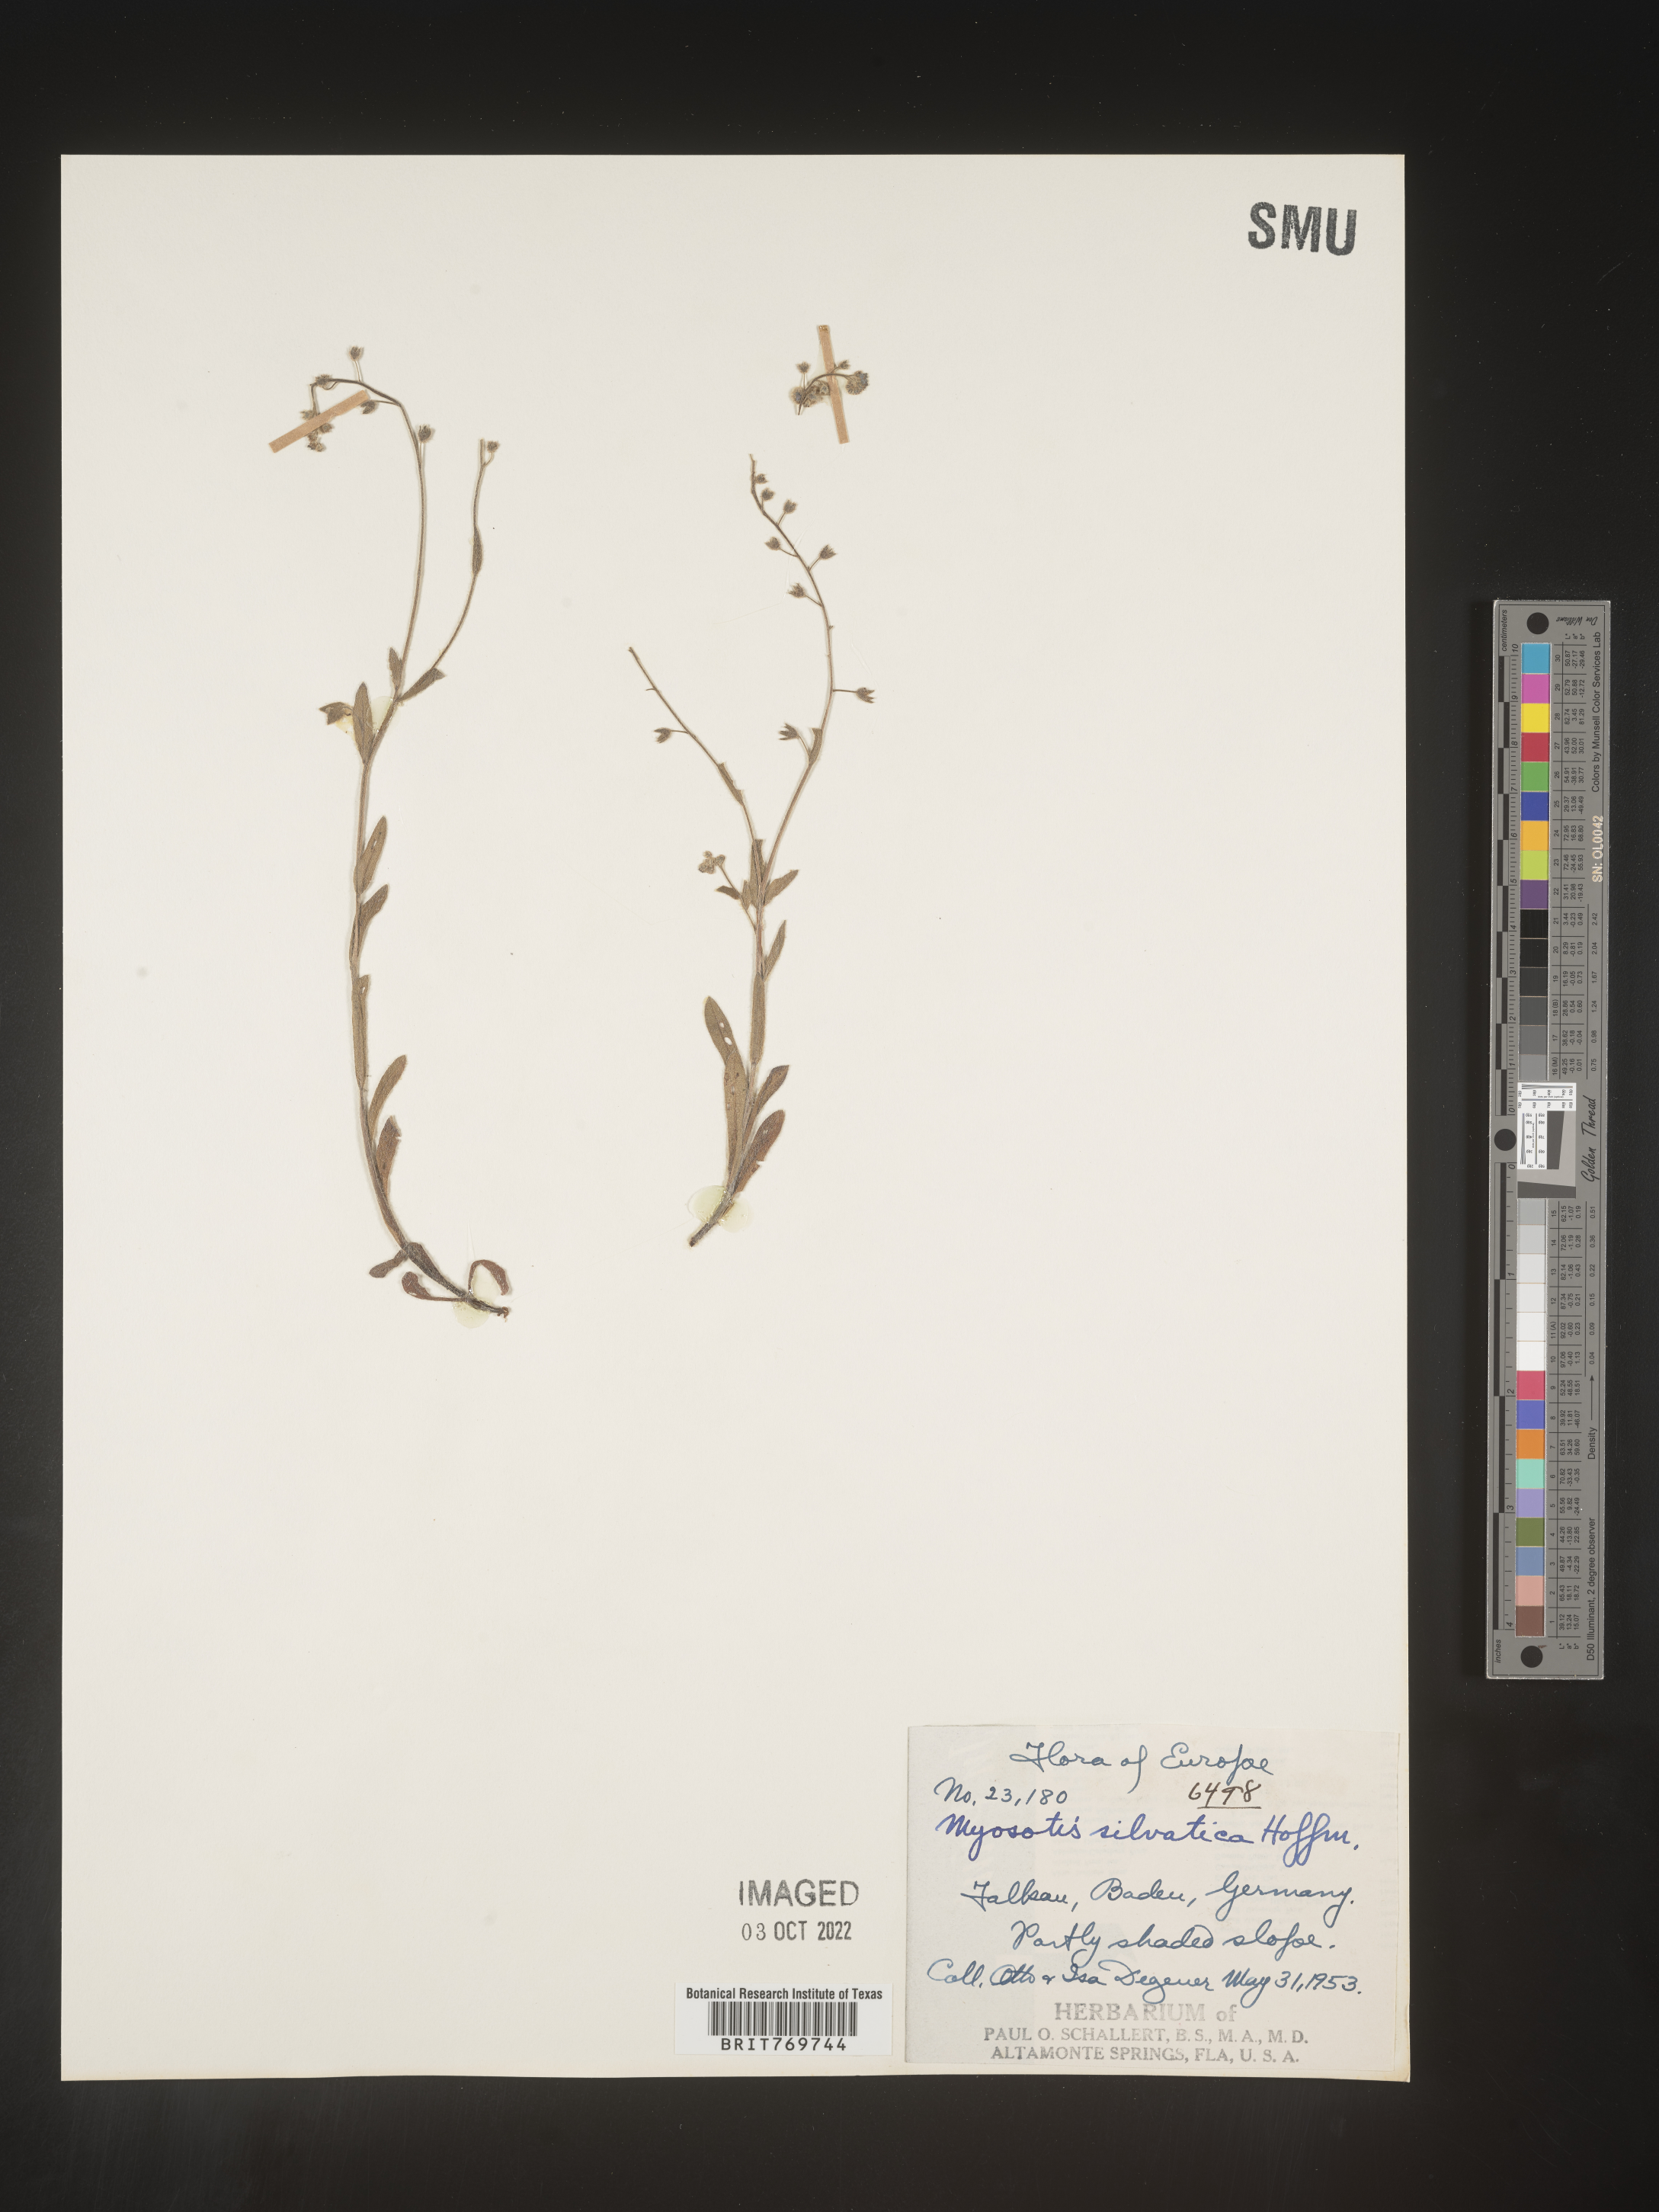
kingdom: Plantae
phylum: Tracheophyta
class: Magnoliopsida
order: Boraginales
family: Boraginaceae
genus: Myosotis
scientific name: Myosotis
